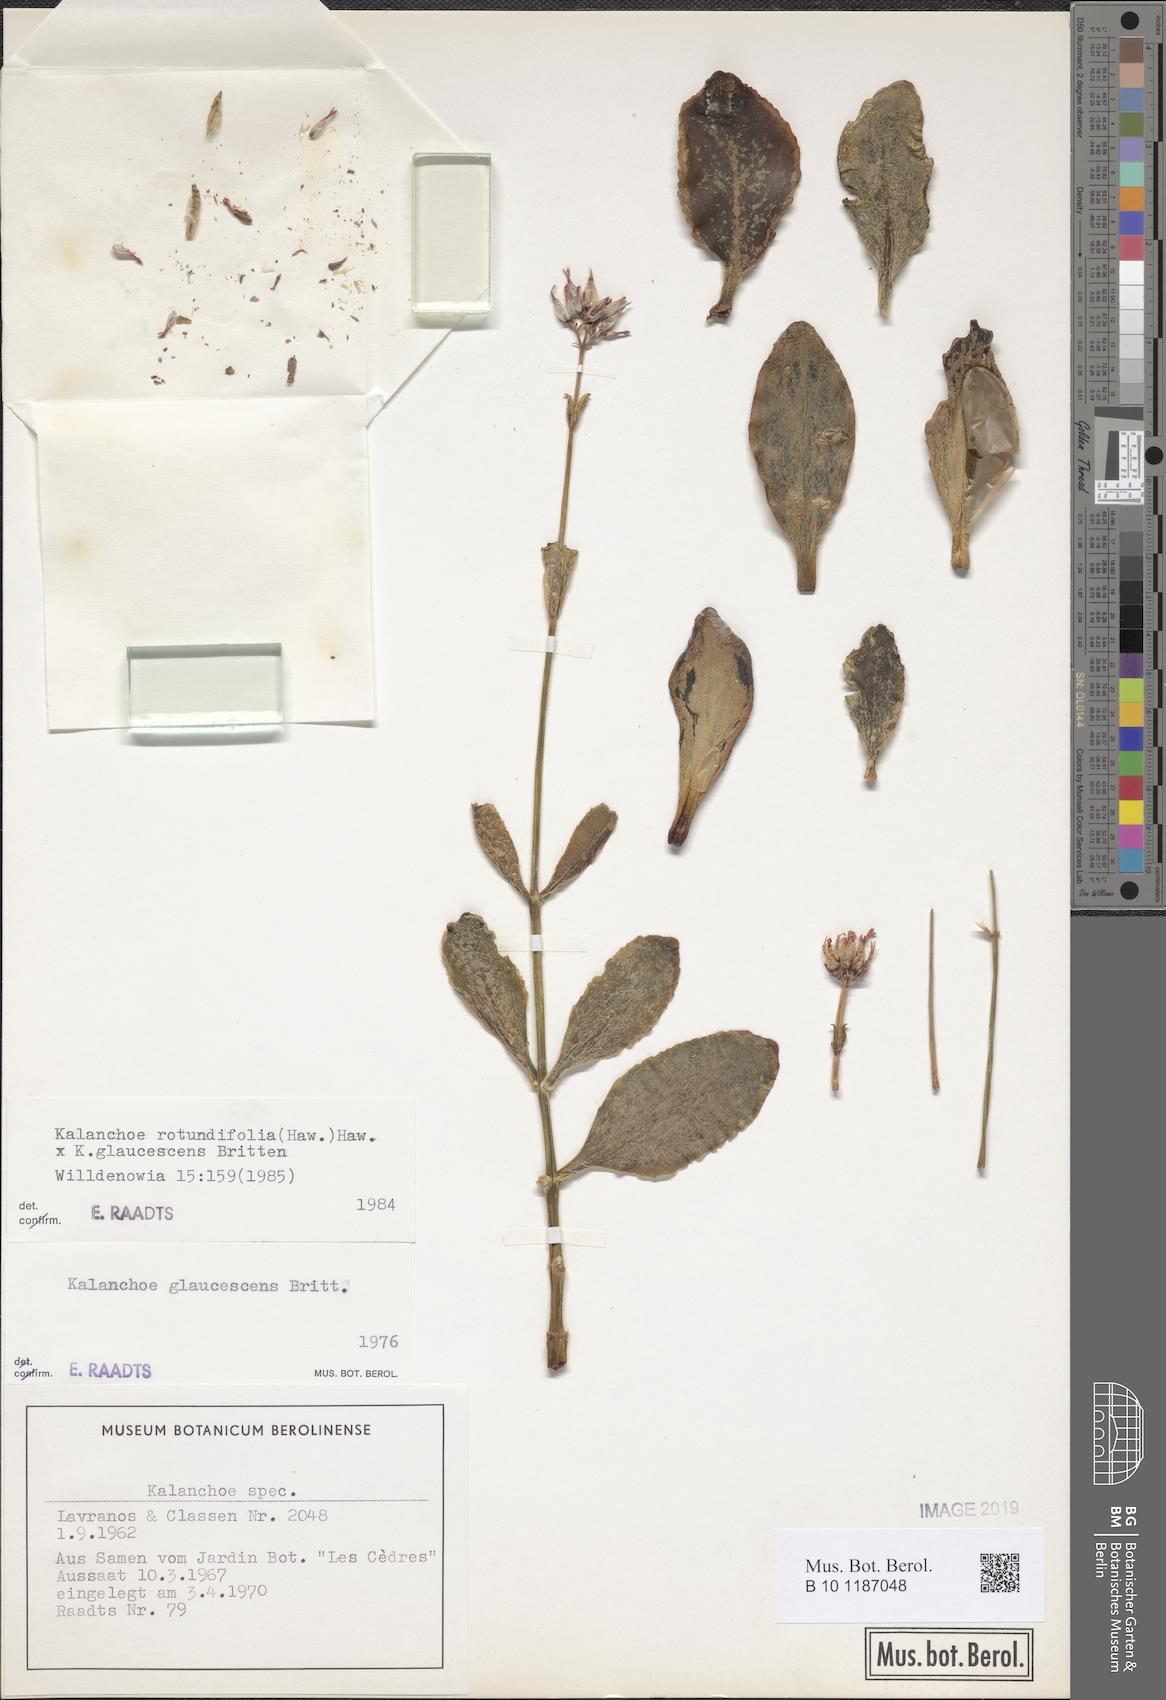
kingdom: Plantae
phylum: Tracheophyta
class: Magnoliopsida
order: Saxifragales
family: Crassulaceae
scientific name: Crassulaceae
